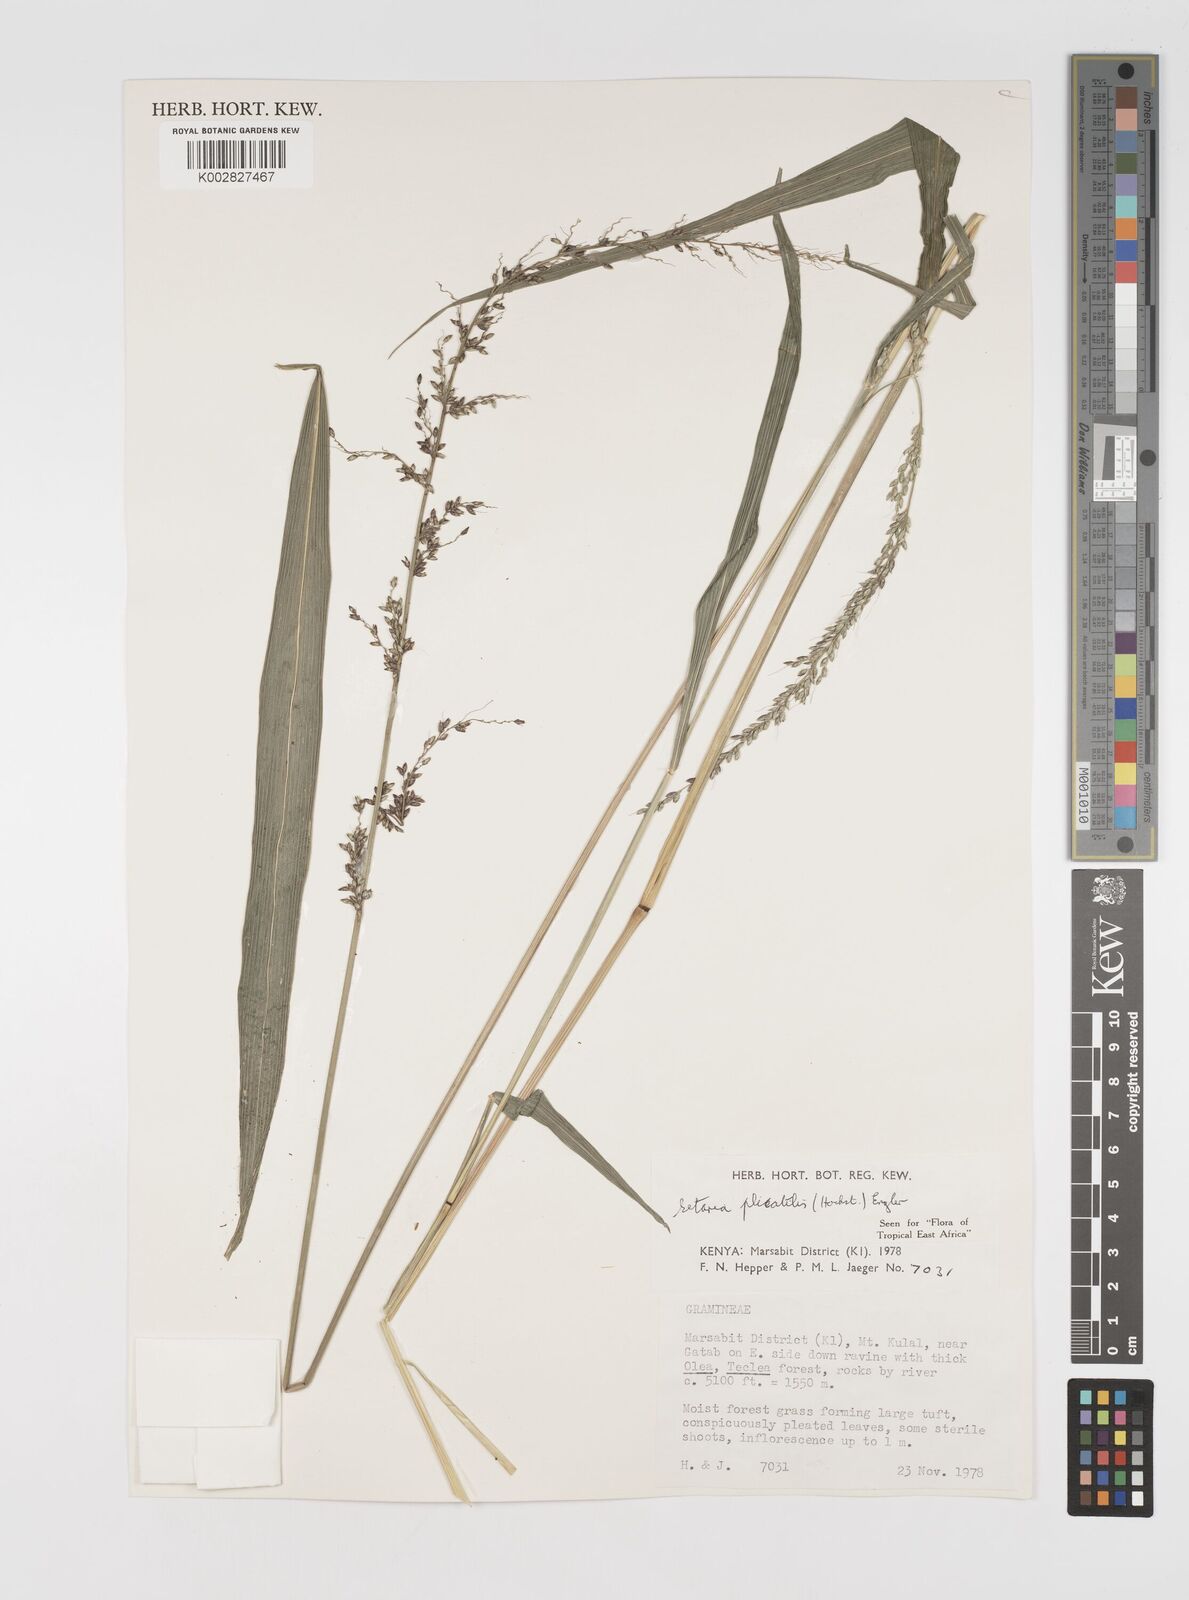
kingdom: Plantae
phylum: Tracheophyta
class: Liliopsida
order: Poales
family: Poaceae
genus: Setaria
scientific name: Setaria megaphylla
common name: Bigleaf bristlegrass
